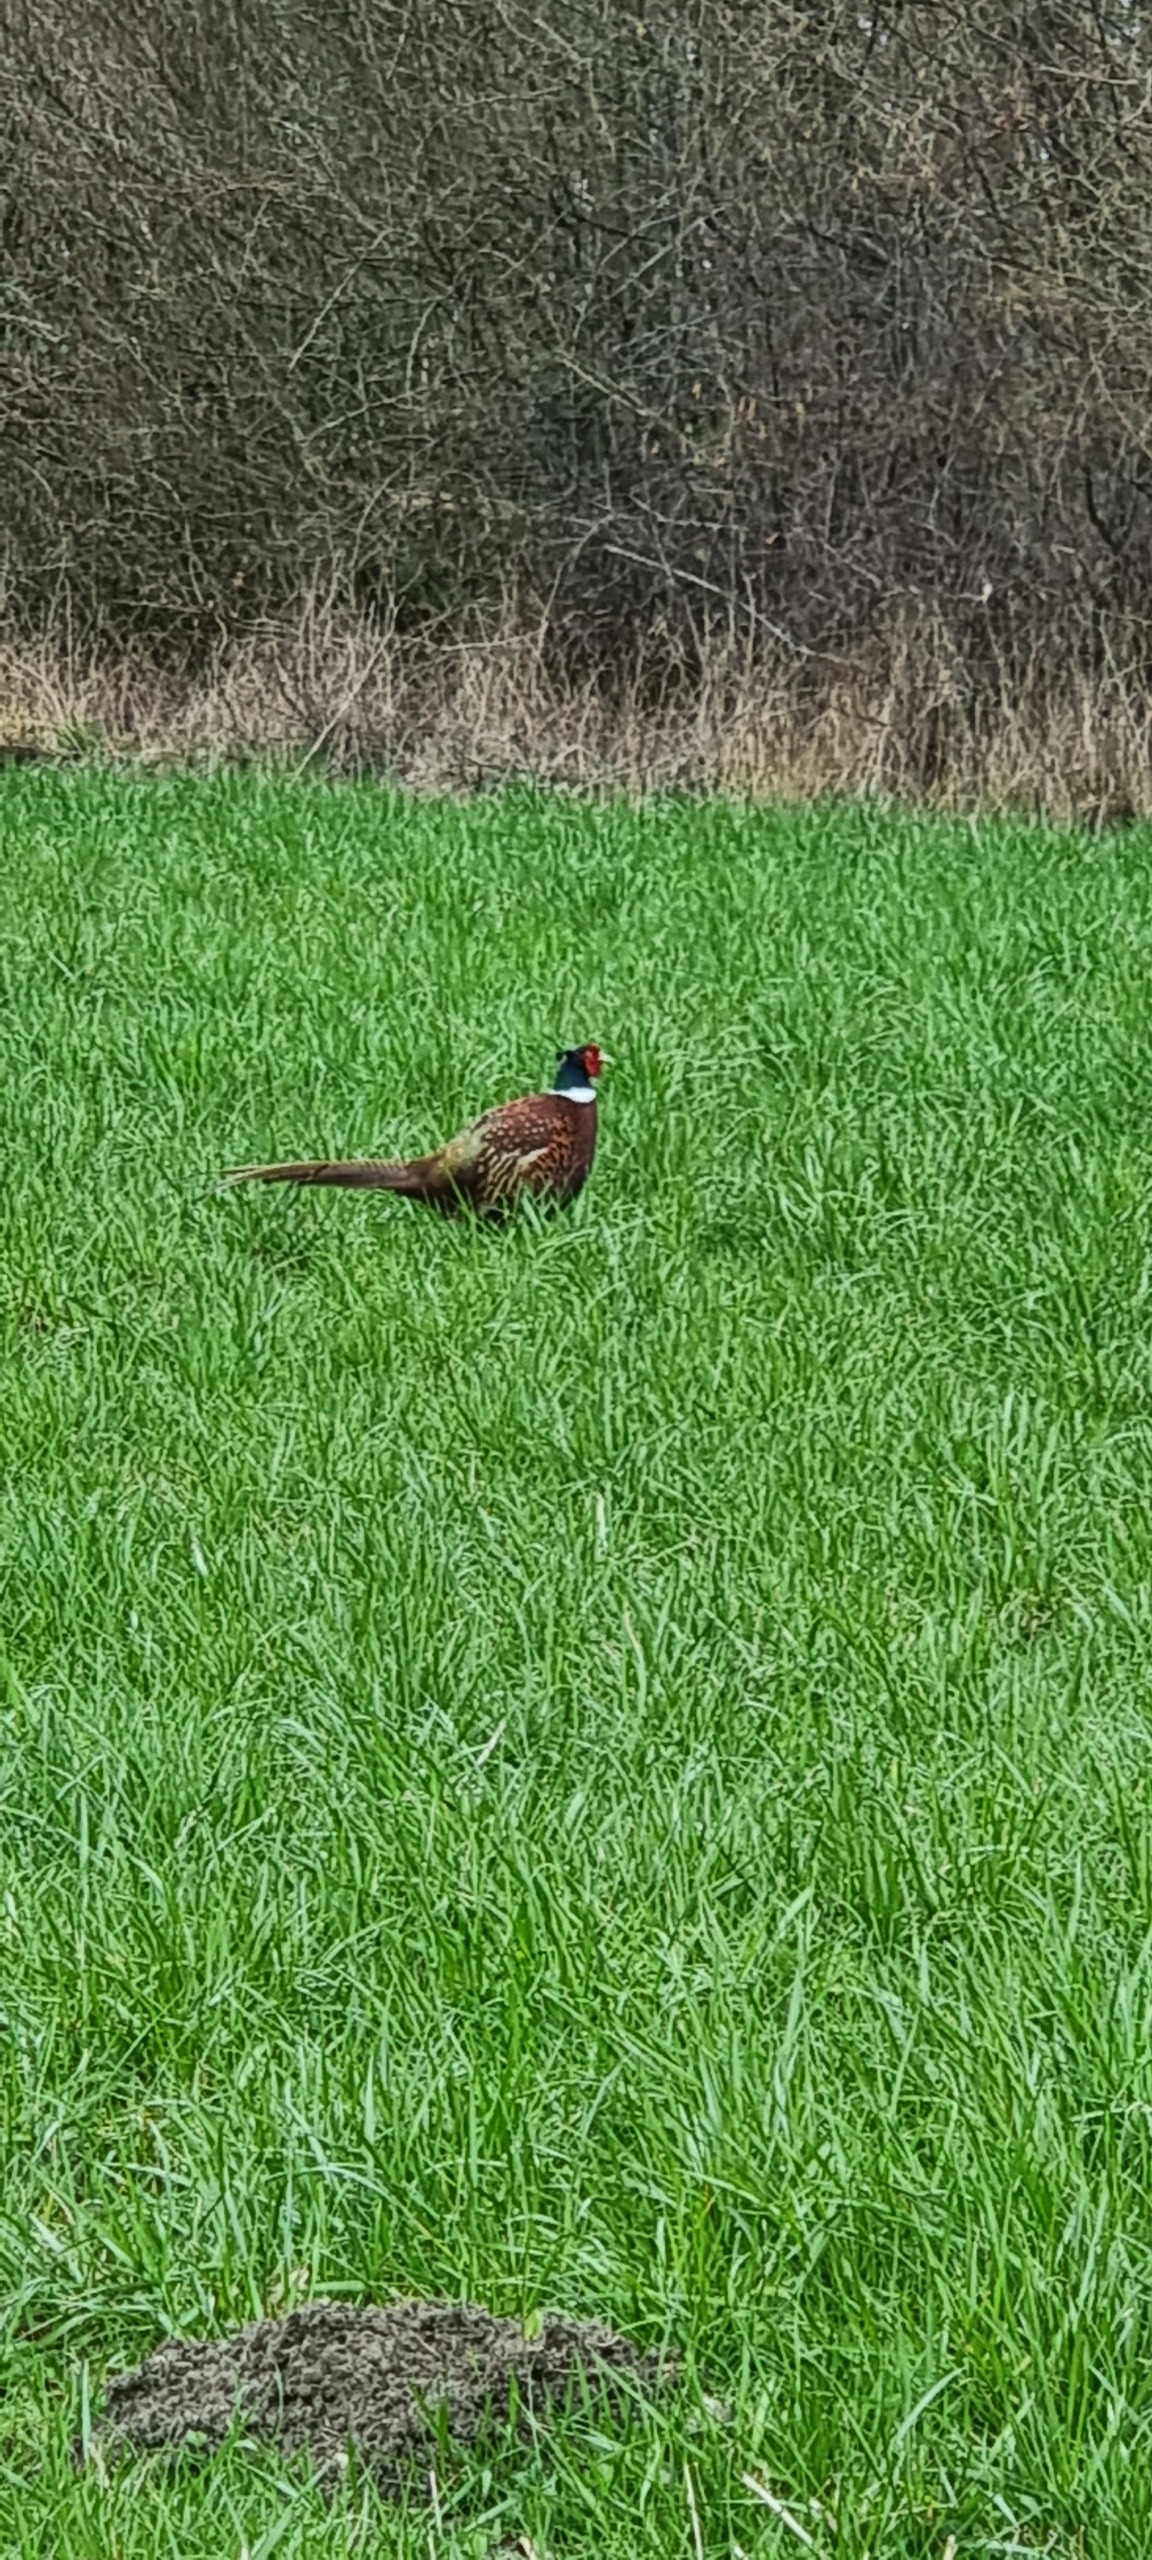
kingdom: Animalia
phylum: Chordata
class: Aves
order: Galliformes
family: Phasianidae
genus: Phasianus
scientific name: Phasianus colchicus
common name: Fasan
